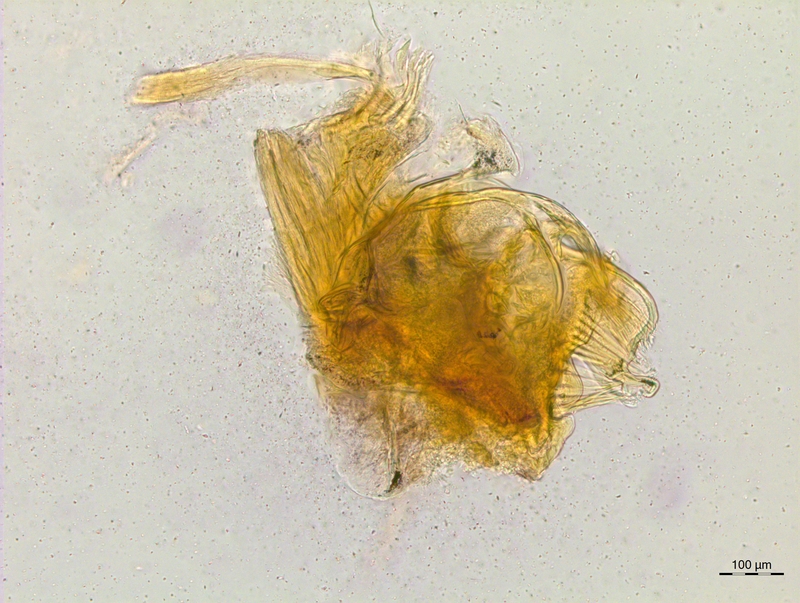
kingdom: Animalia
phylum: Arthropoda
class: Diplopoda
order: Chordeumatida
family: Craspedosomatidae
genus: Craspedosoma
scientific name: Craspedosoma rawlinsii
